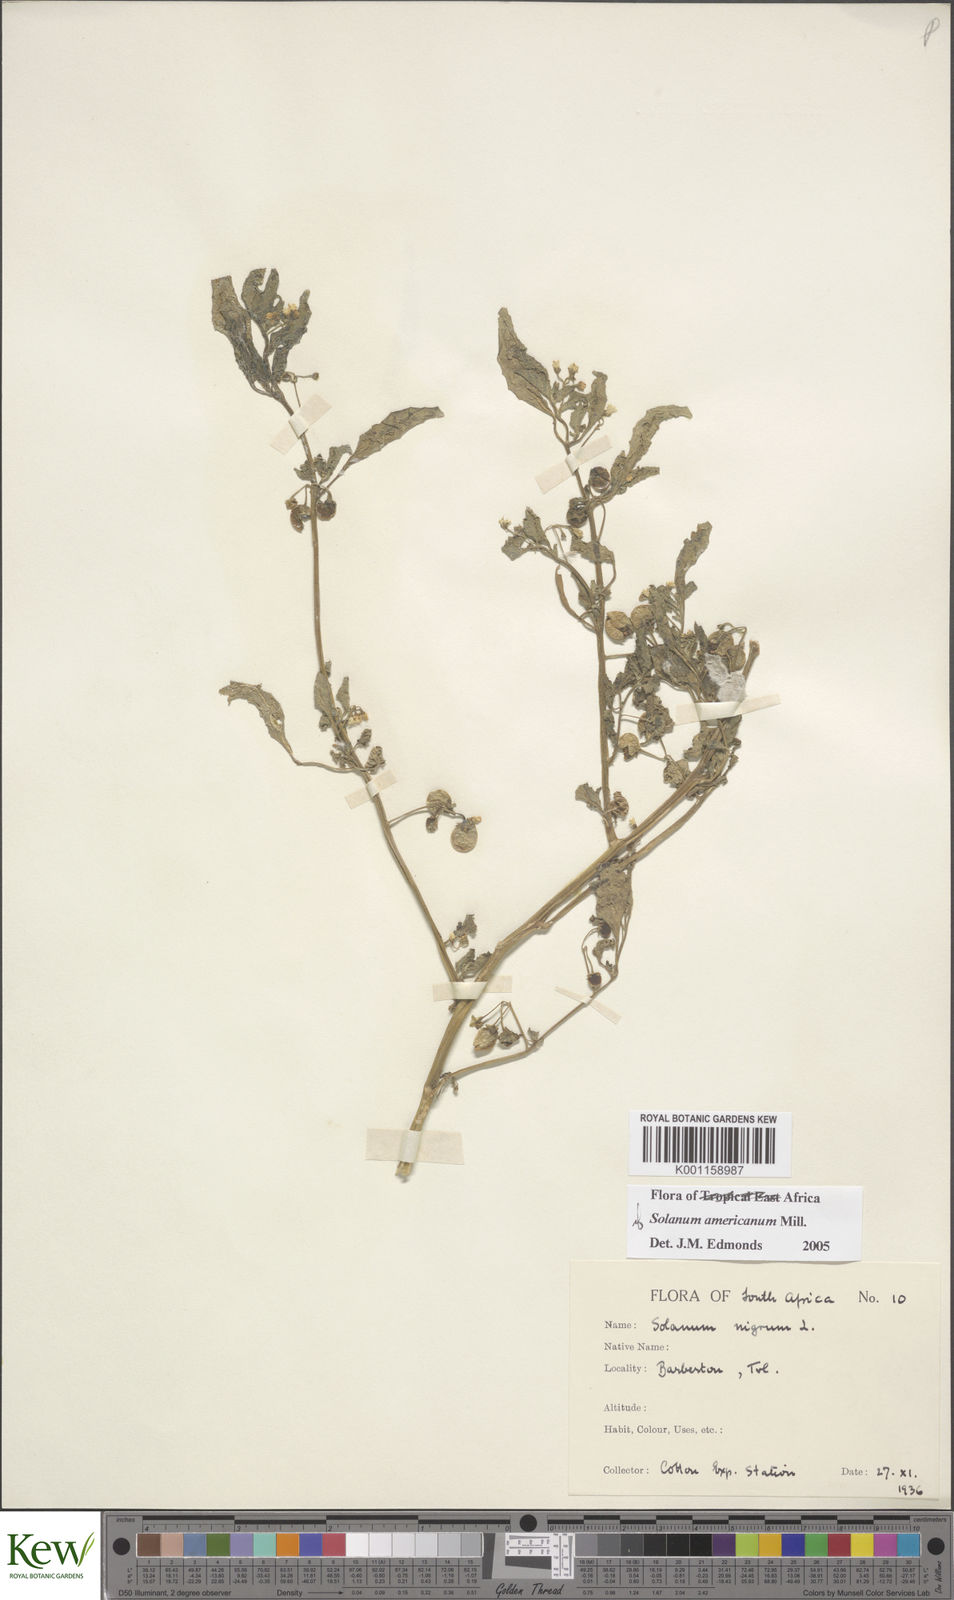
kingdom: Plantae
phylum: Tracheophyta
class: Magnoliopsida
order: Solanales
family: Solanaceae
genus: Solanum
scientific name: Solanum americanum
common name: American black nightshade
